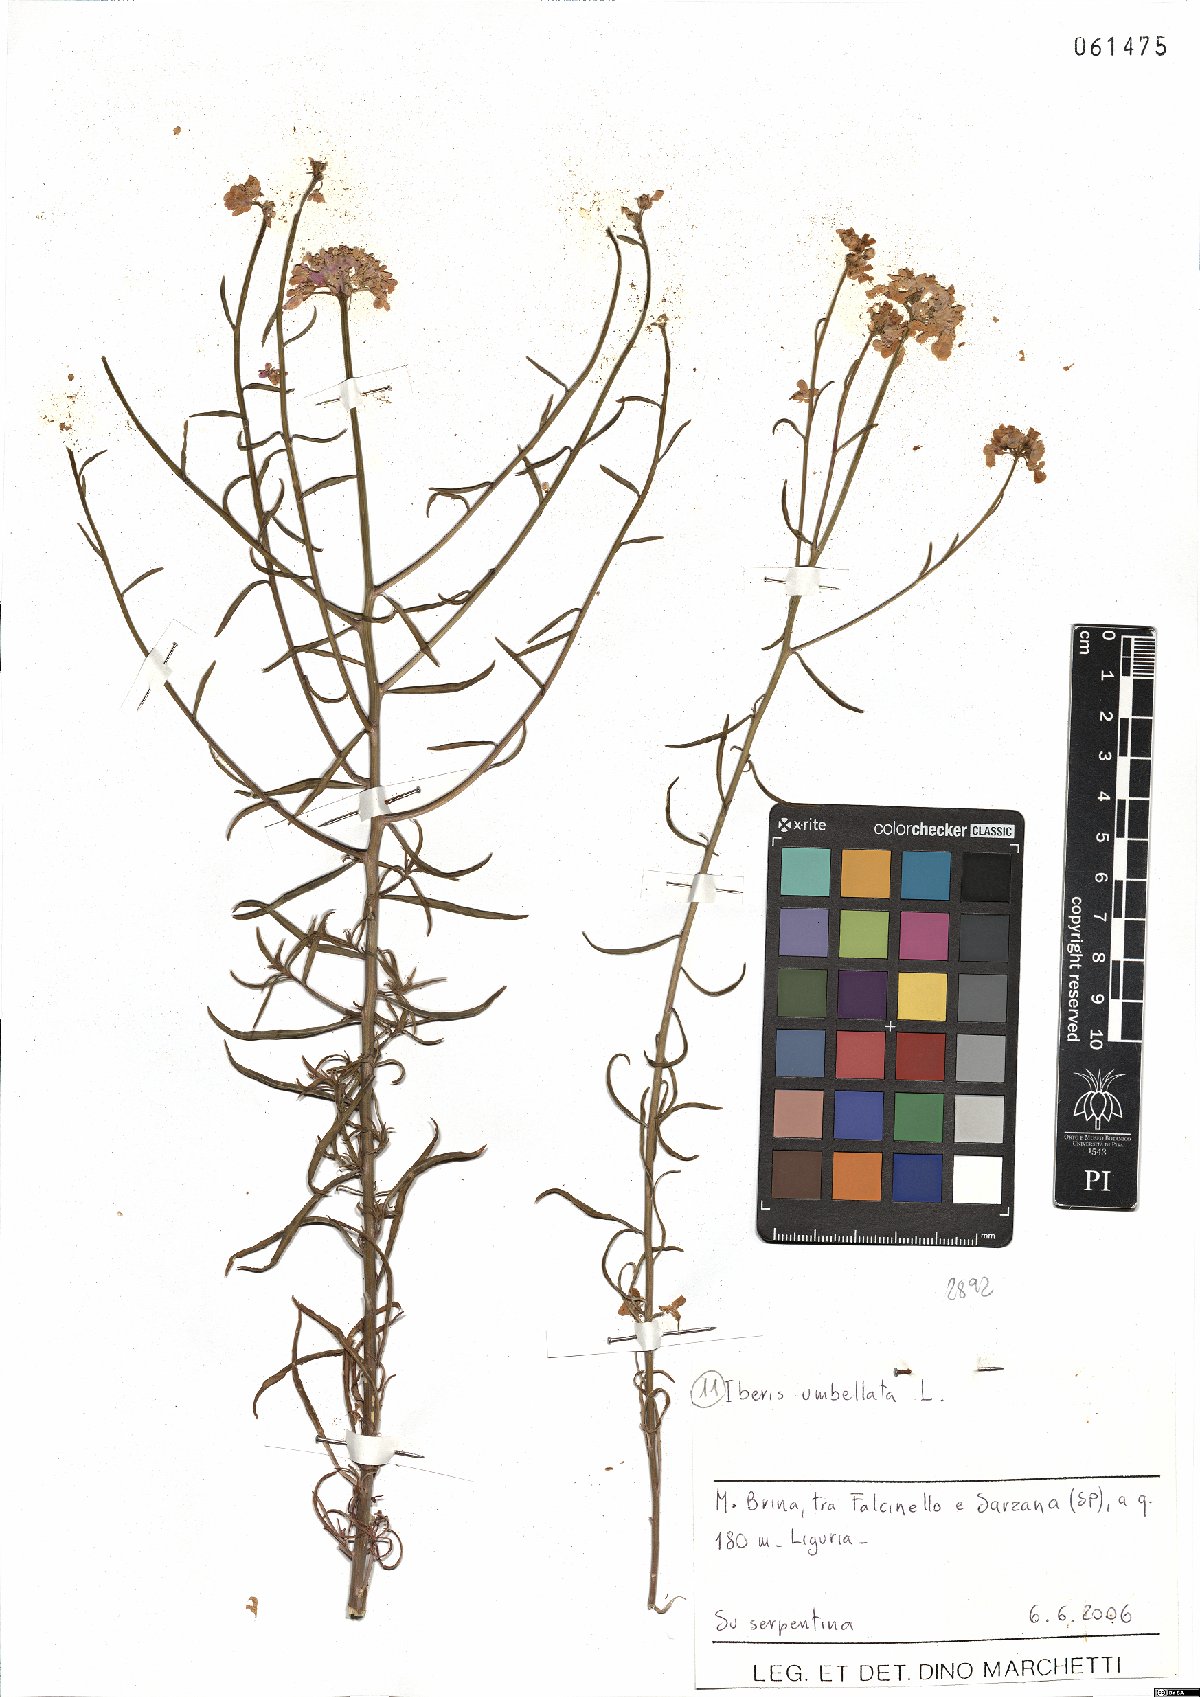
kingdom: Plantae
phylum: Tracheophyta
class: Magnoliopsida
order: Brassicales
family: Brassicaceae
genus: Iberis
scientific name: Iberis umbellata
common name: Globe candytuft
